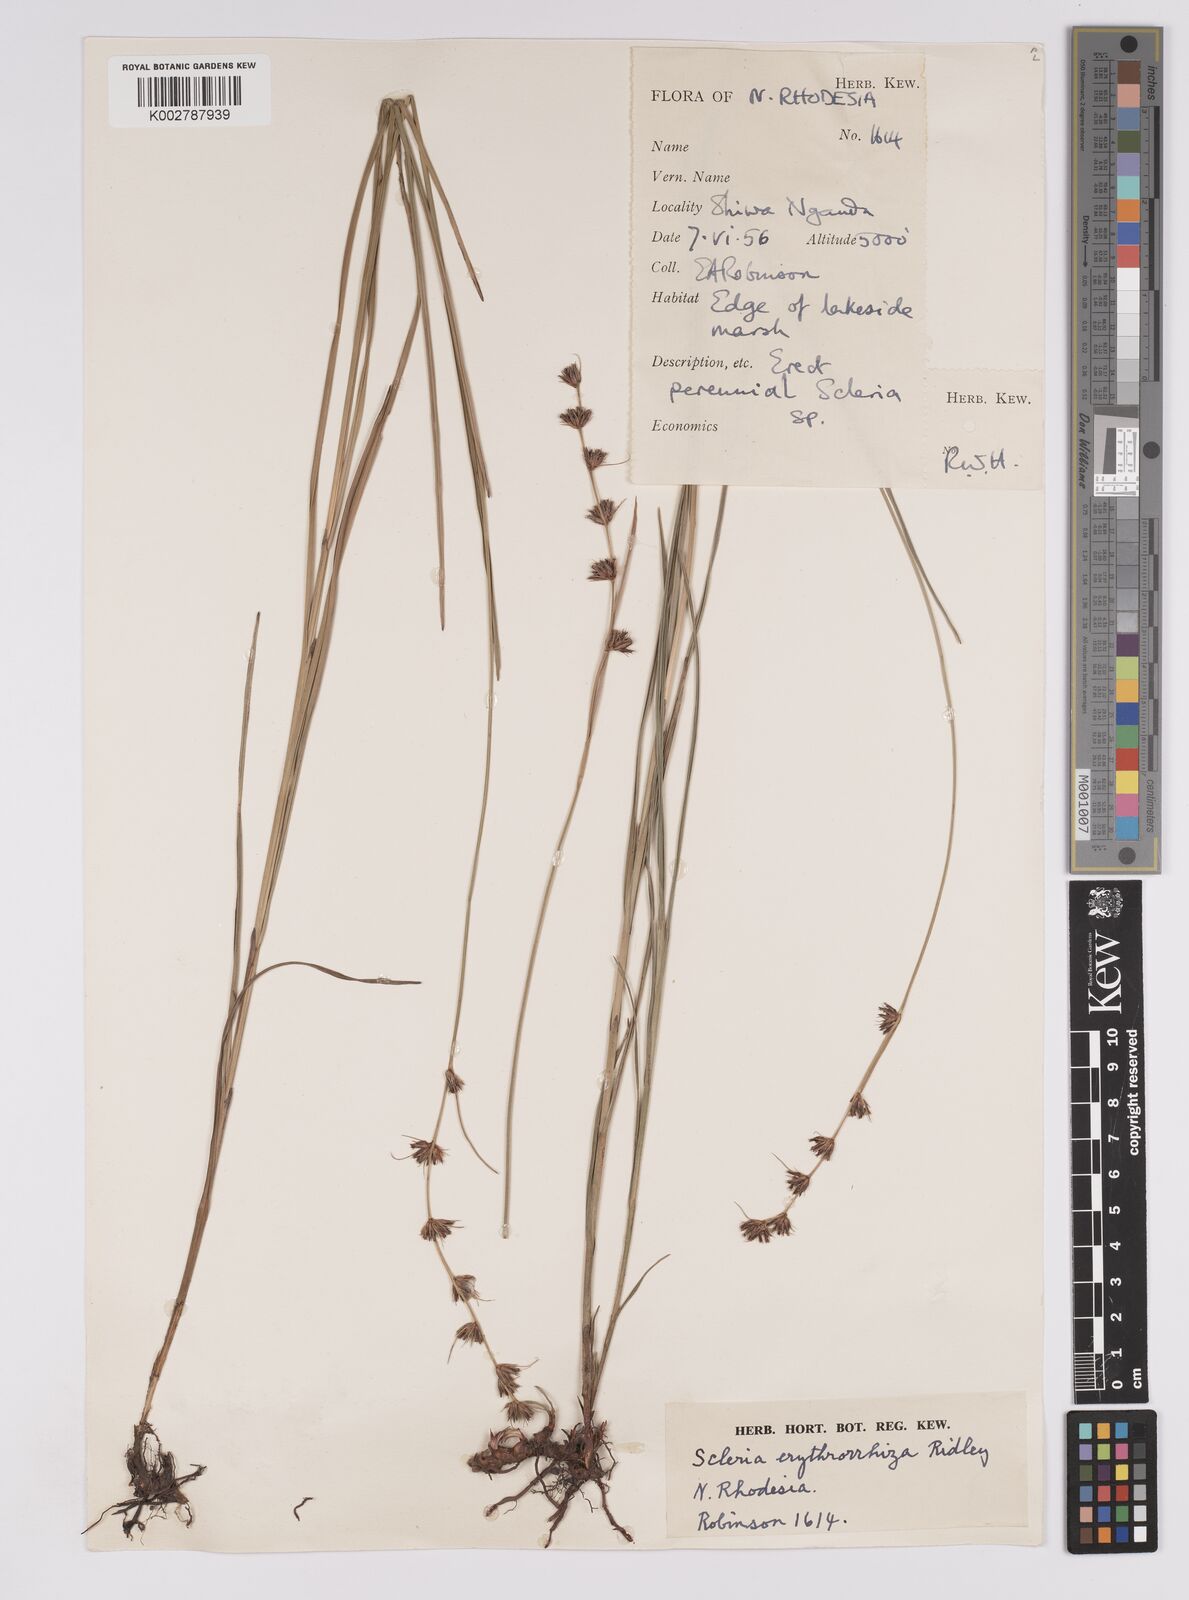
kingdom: Plantae
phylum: Tracheophyta
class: Liliopsida
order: Poales
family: Cyperaceae
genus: Scleria
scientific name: Scleria erythrorrhiza
